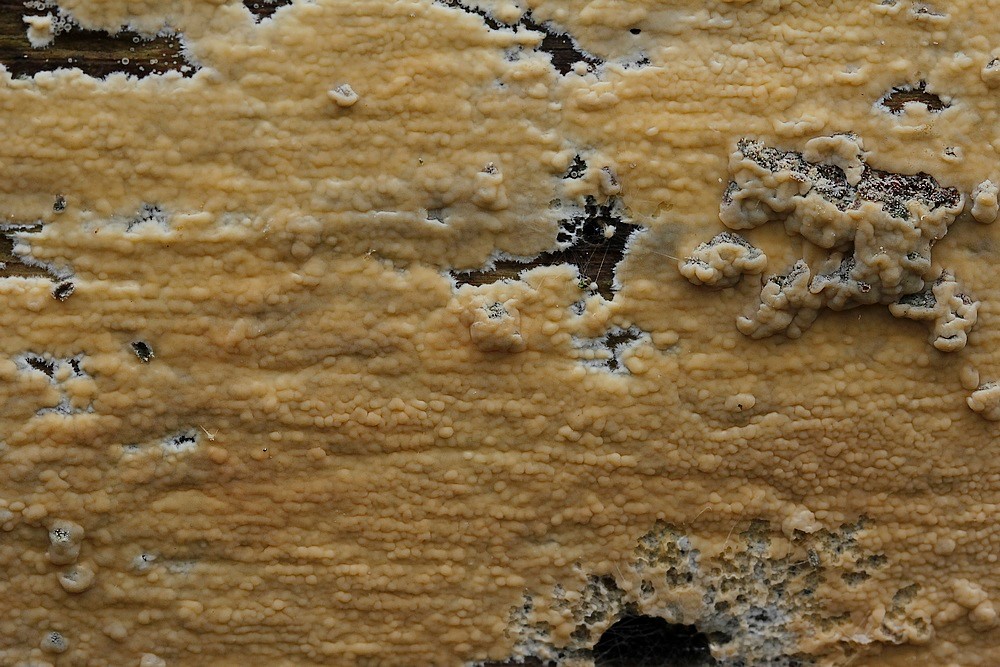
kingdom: Fungi
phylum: Basidiomycota
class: Agaricomycetes
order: Corticiales
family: Corticiaceae
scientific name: Corticiaceae
